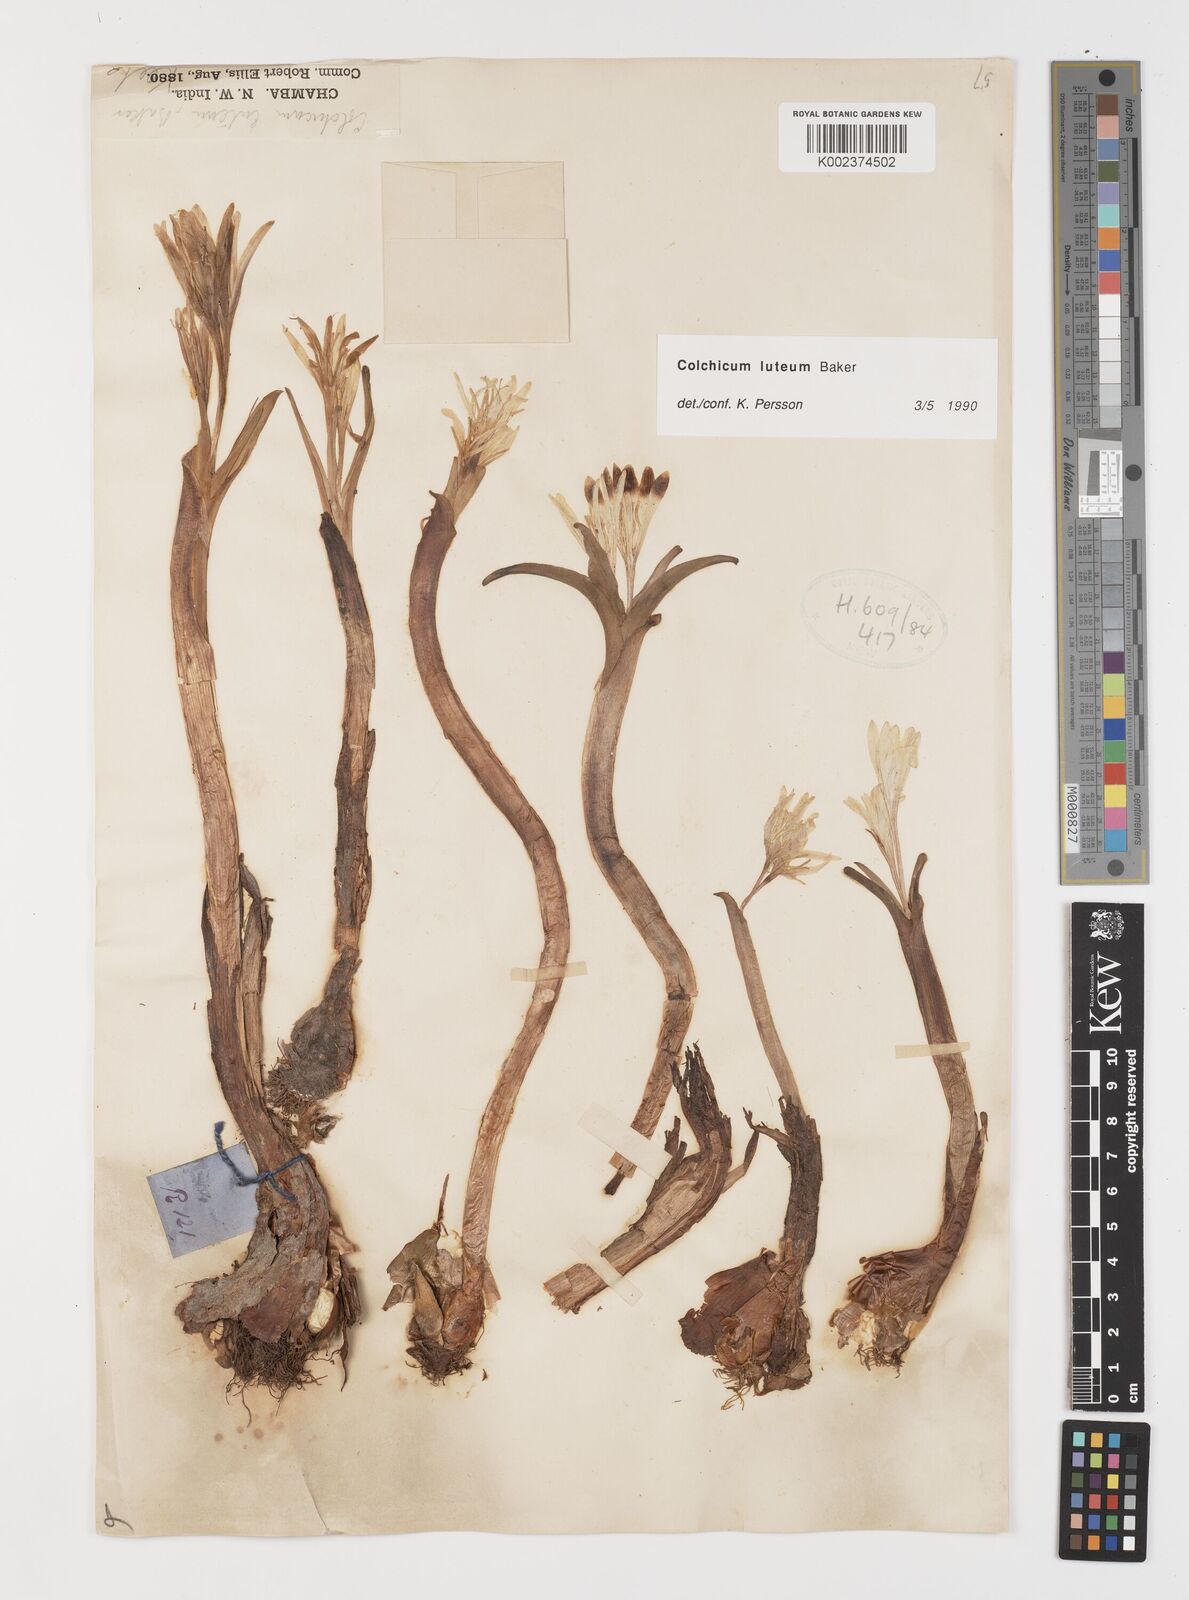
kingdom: Plantae
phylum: Tracheophyta
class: Liliopsida
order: Liliales
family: Colchicaceae
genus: Colchicum
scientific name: Colchicum luteum
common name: Indian colchicum
